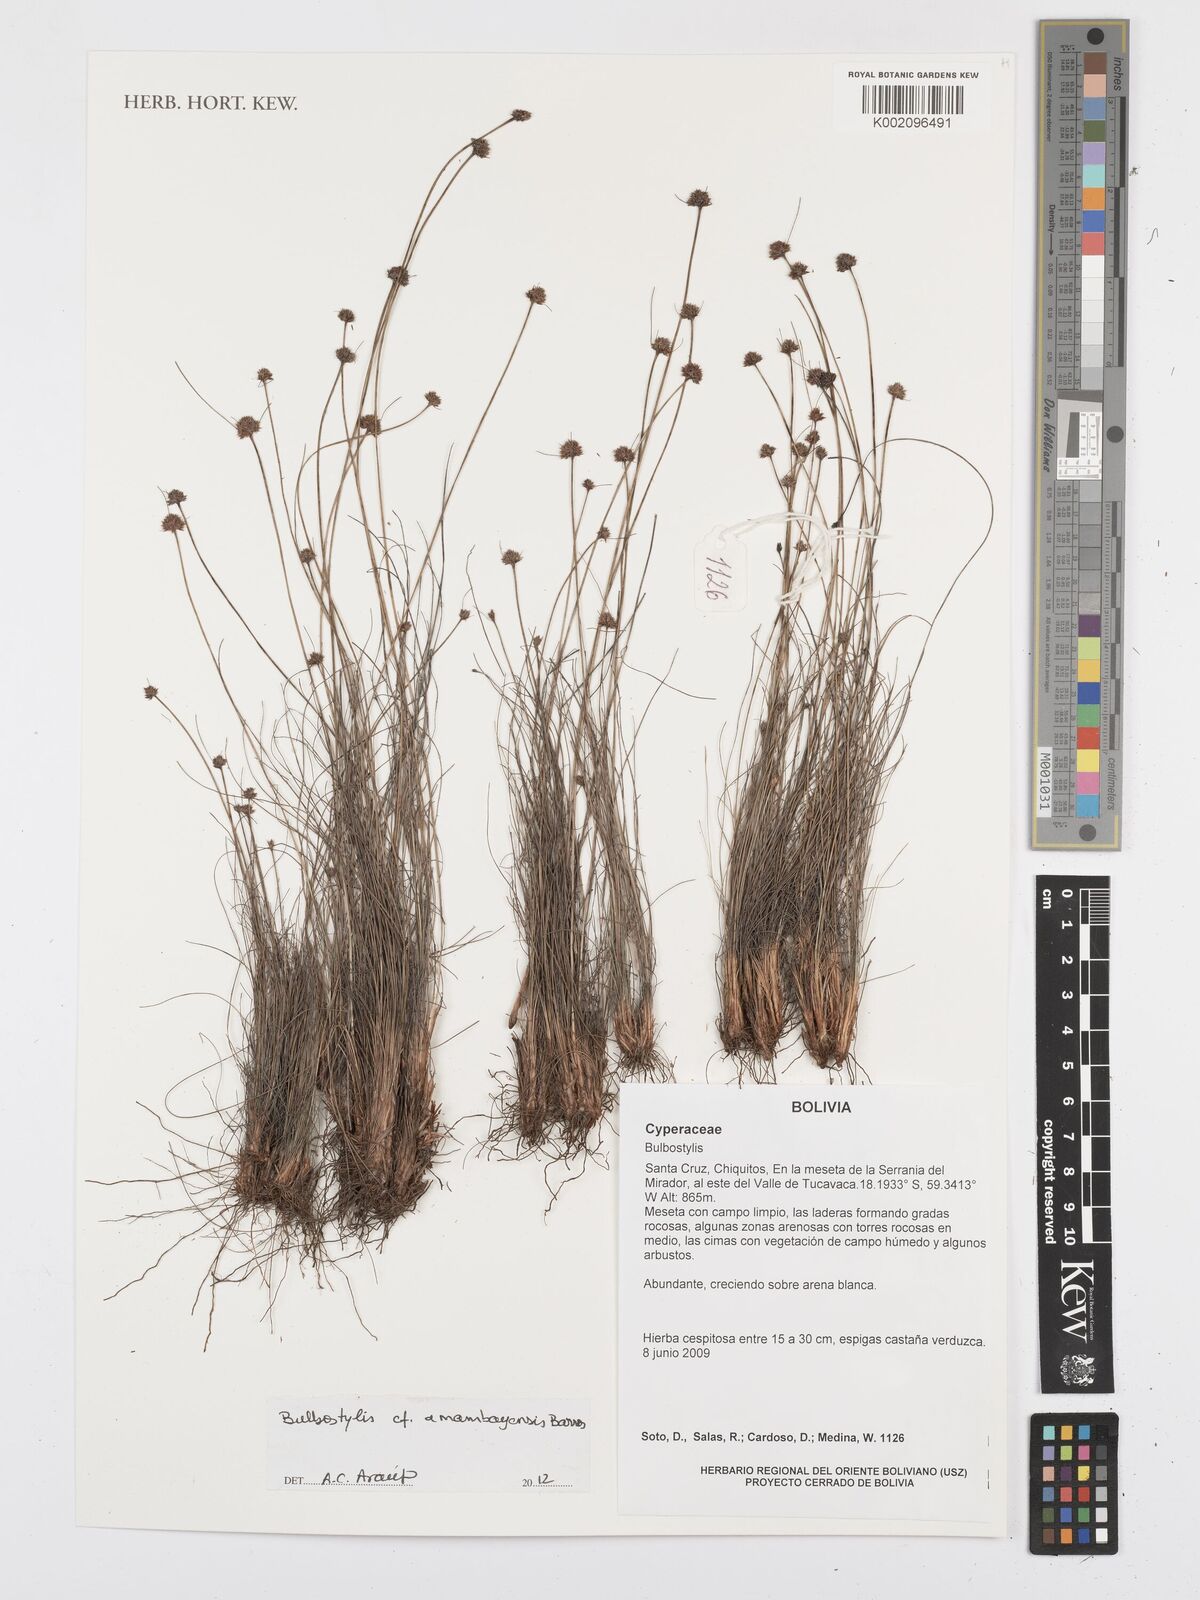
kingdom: Plantae
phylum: Tracheophyta
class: Liliopsida
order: Poales
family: Cyperaceae
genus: Bulbostylis
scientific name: Bulbostylis amambayensis
